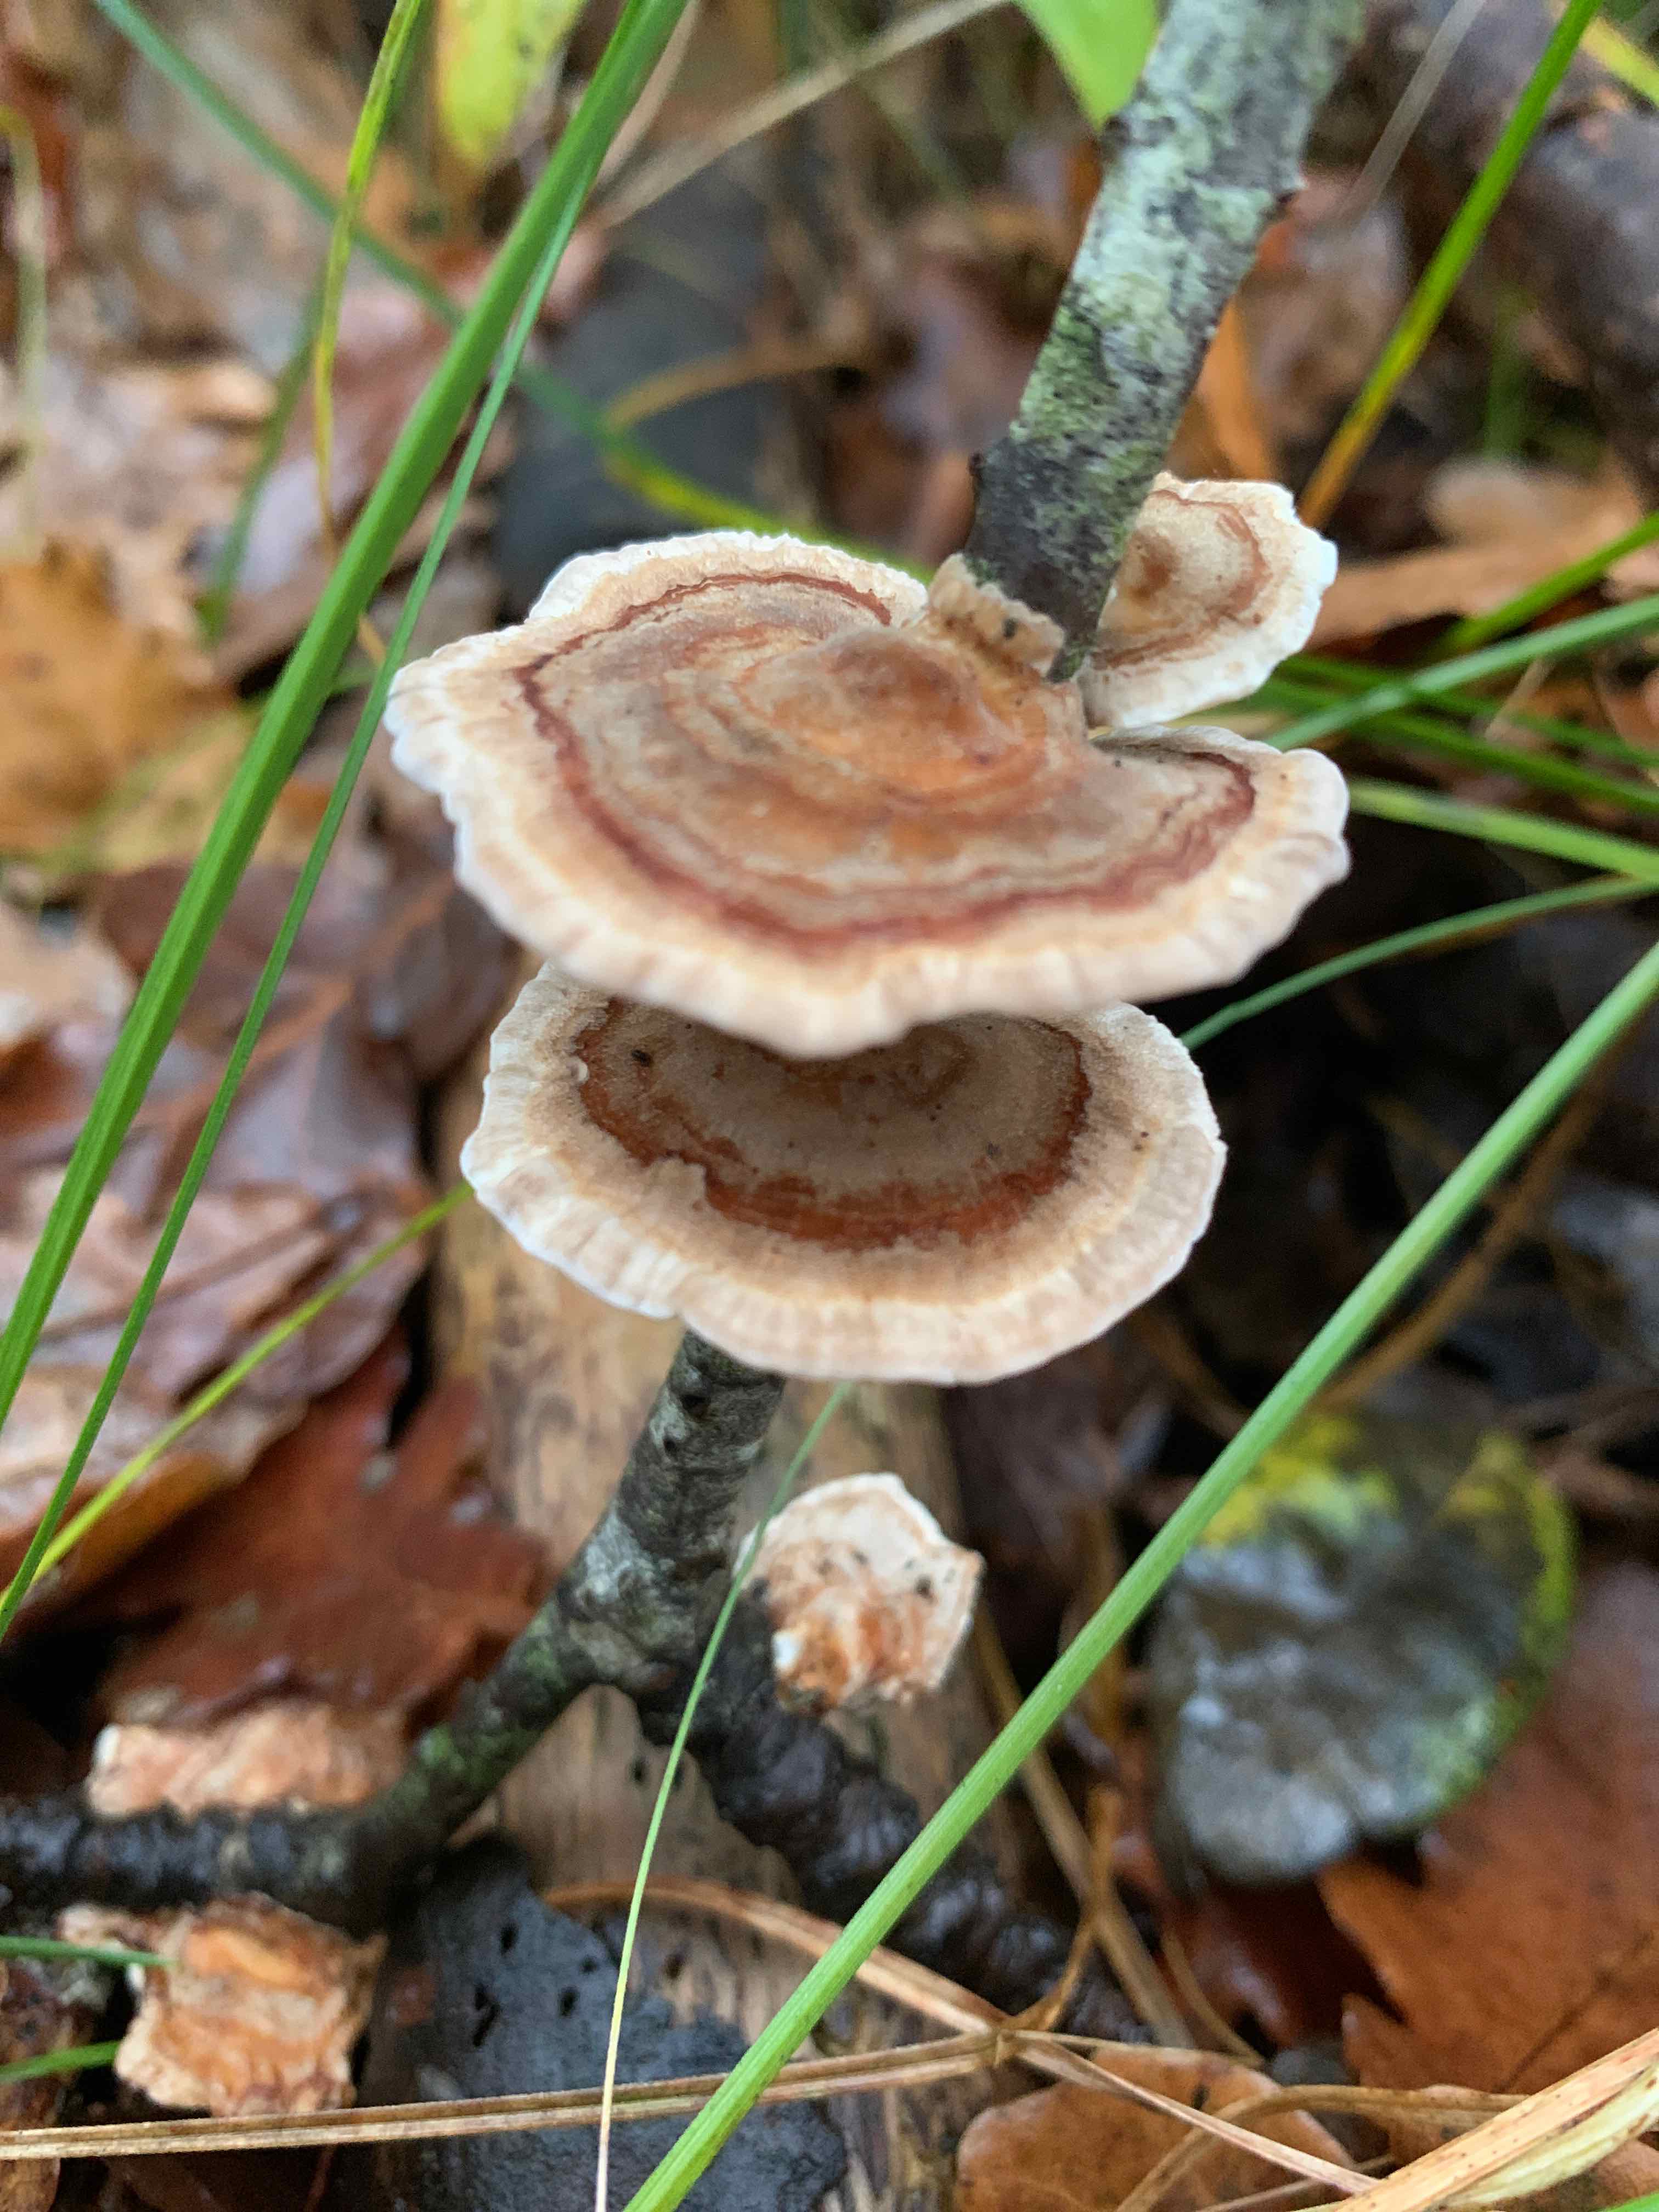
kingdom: Fungi
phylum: Basidiomycota
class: Agaricomycetes
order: Polyporales
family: Polyporaceae
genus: Trametes
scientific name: Trametes ochracea
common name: bæltet læderporesvamp
